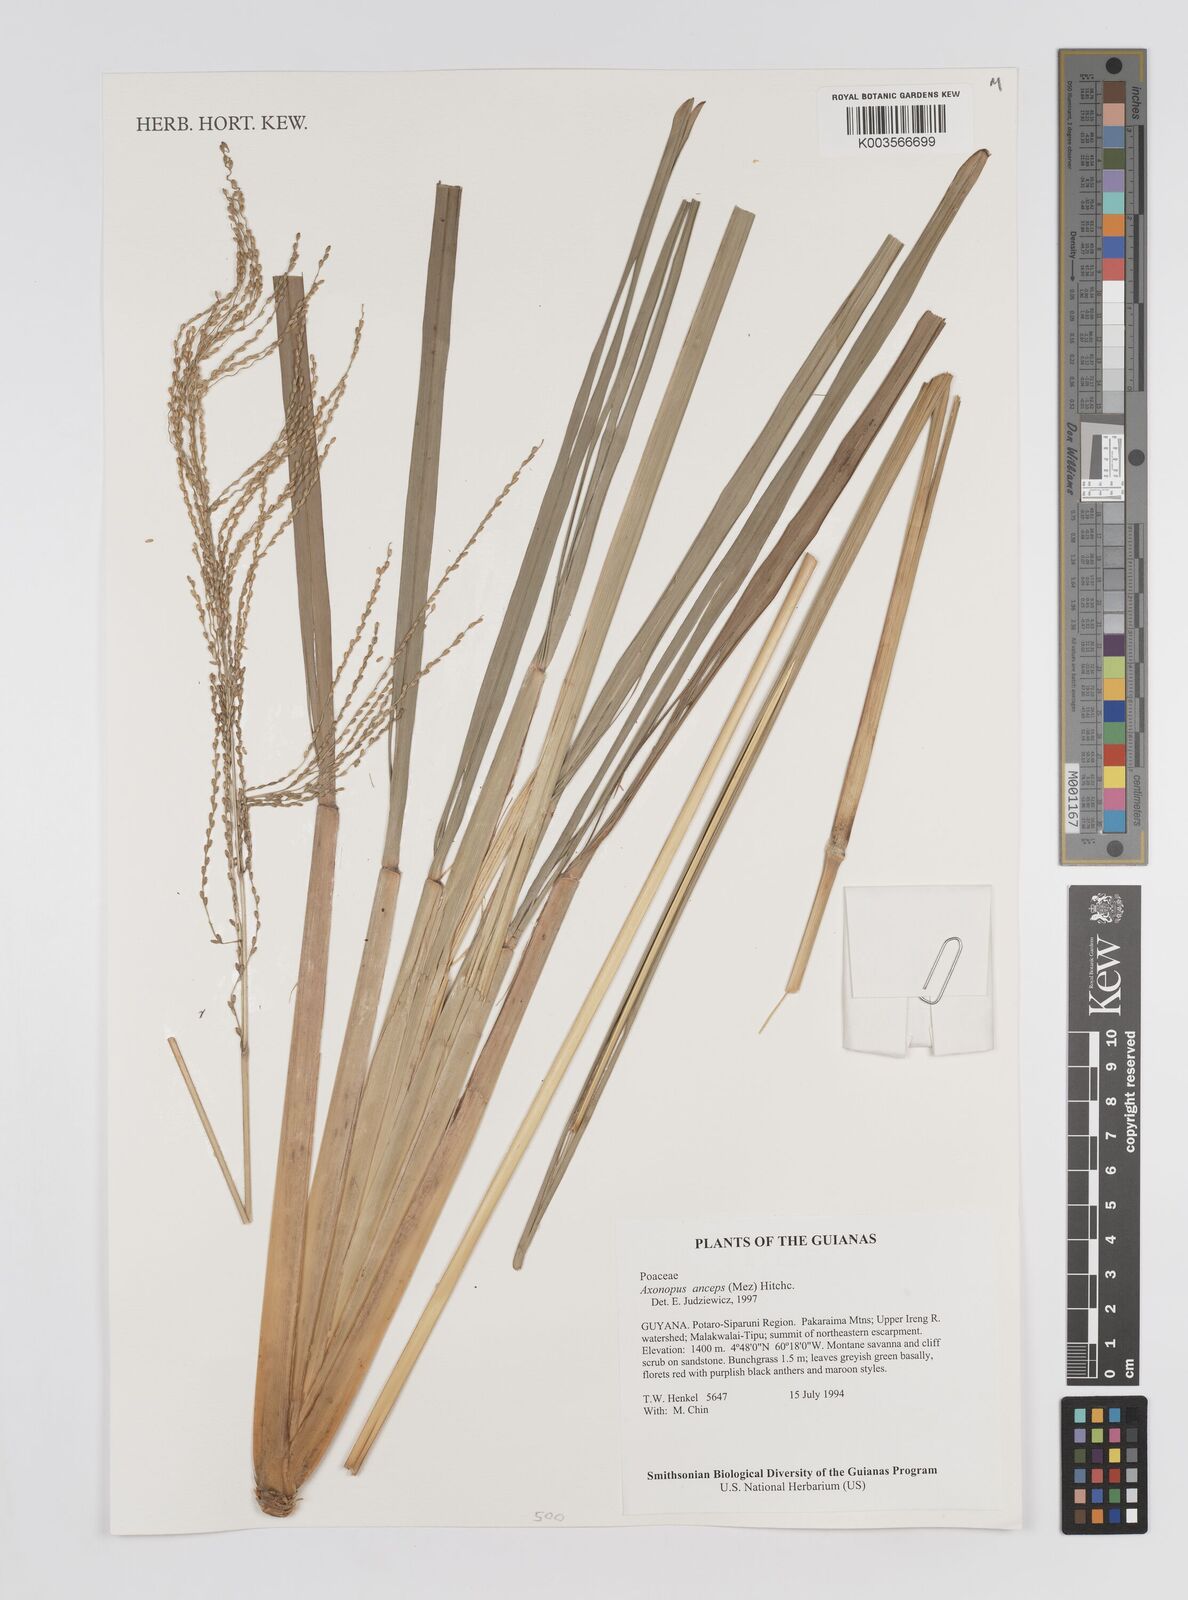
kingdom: Plantae
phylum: Tracheophyta
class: Liliopsida
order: Poales
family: Poaceae
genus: Axonopus
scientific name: Axonopus anceps
